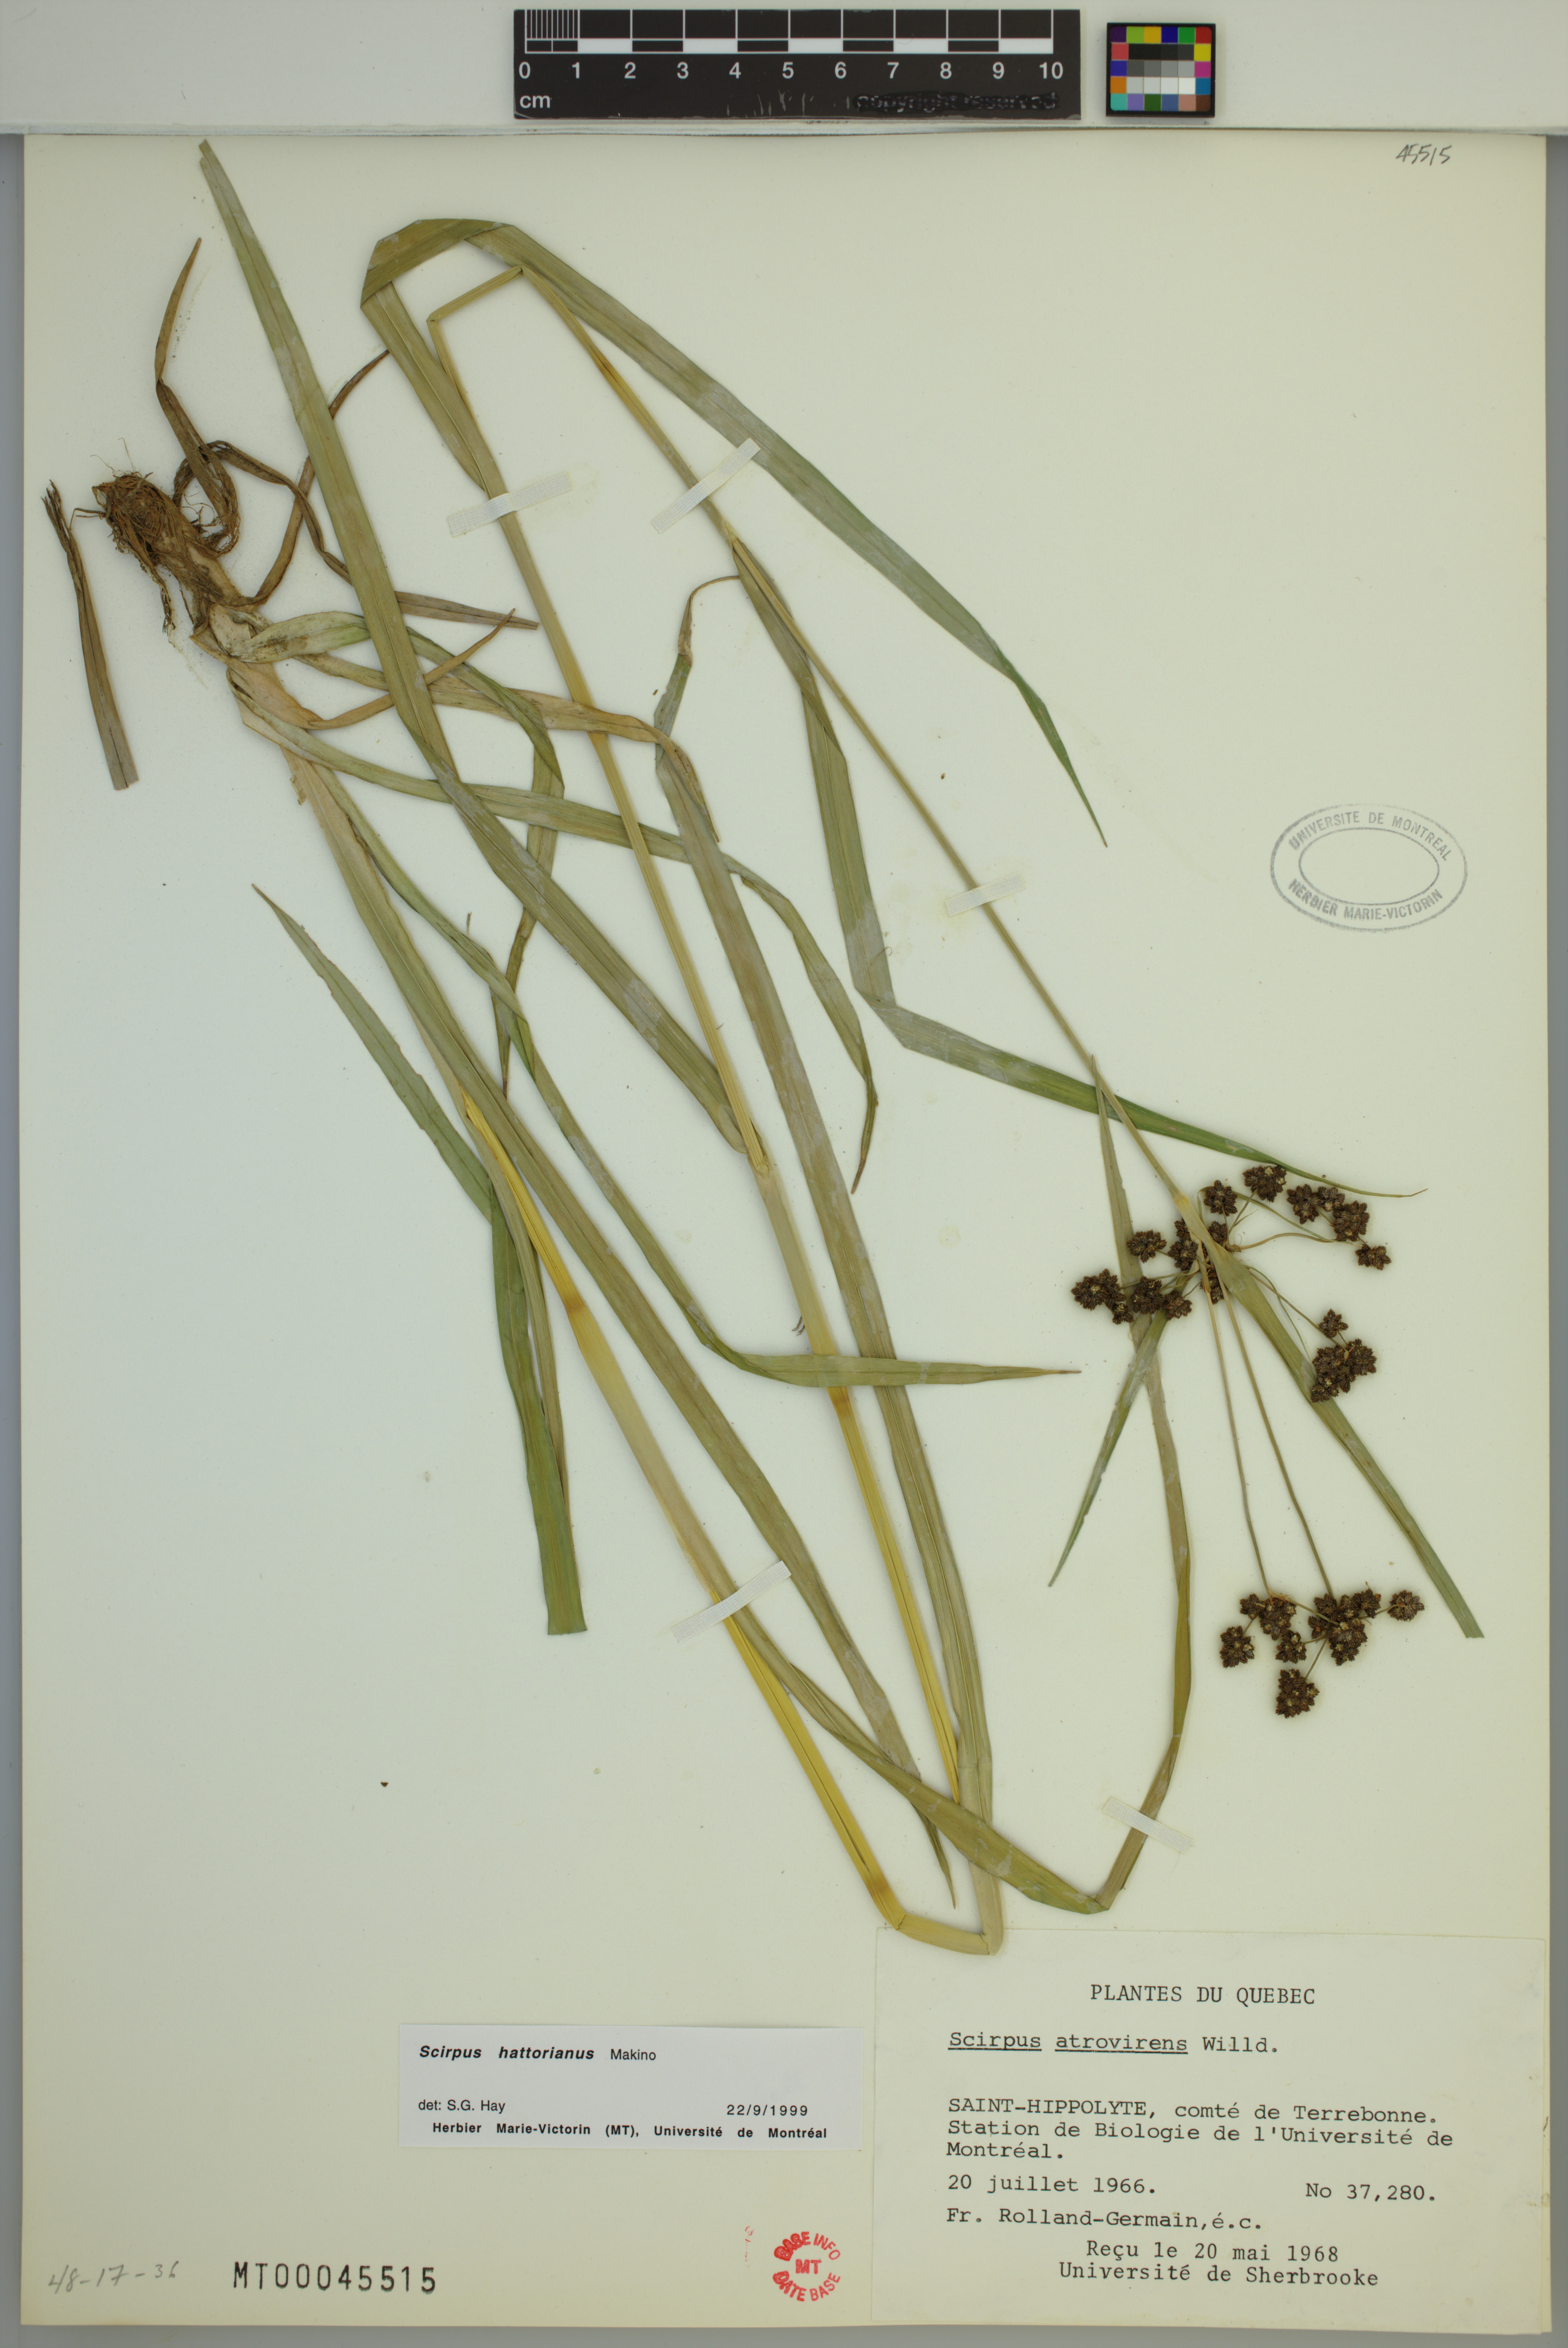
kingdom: Plantae
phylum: Tracheophyta
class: Liliopsida
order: Poales
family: Cyperaceae
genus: Scirpus
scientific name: Scirpus hattorianus
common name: Early dark-green bulrush
